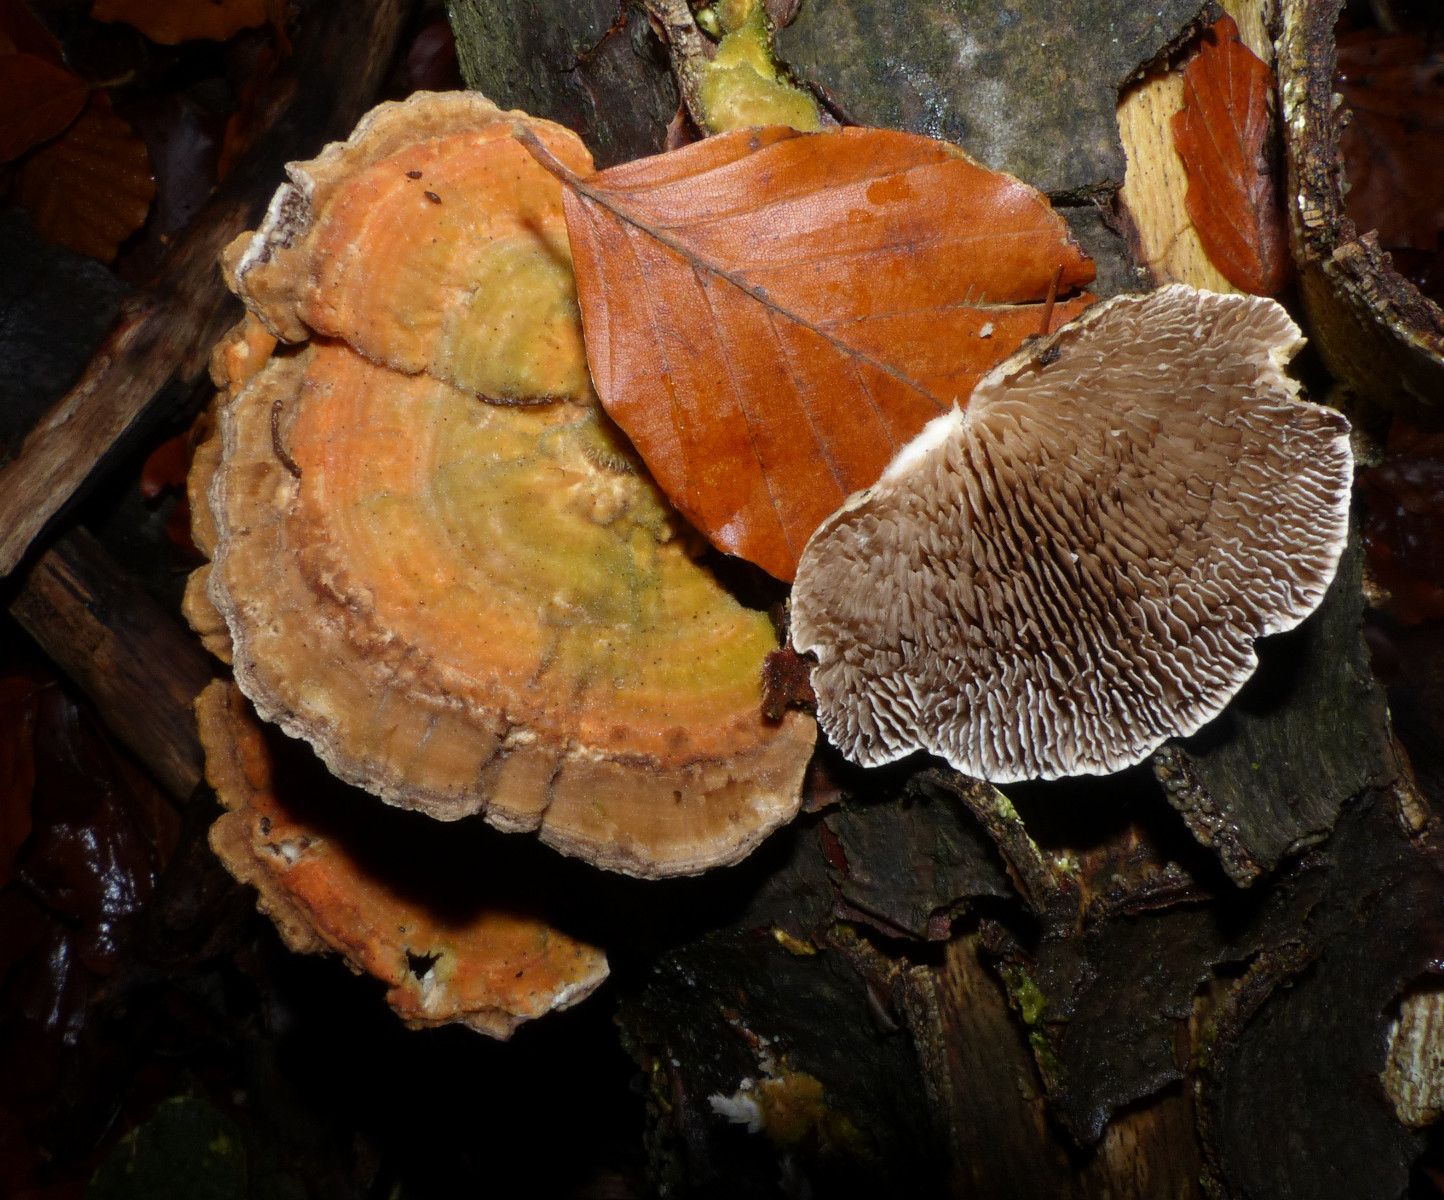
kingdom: Fungi
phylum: Basidiomycota
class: Agaricomycetes
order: Polyporales
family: Polyporaceae
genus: Lenzites
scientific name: Lenzites betulinus
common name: birke-læderporesvamp
